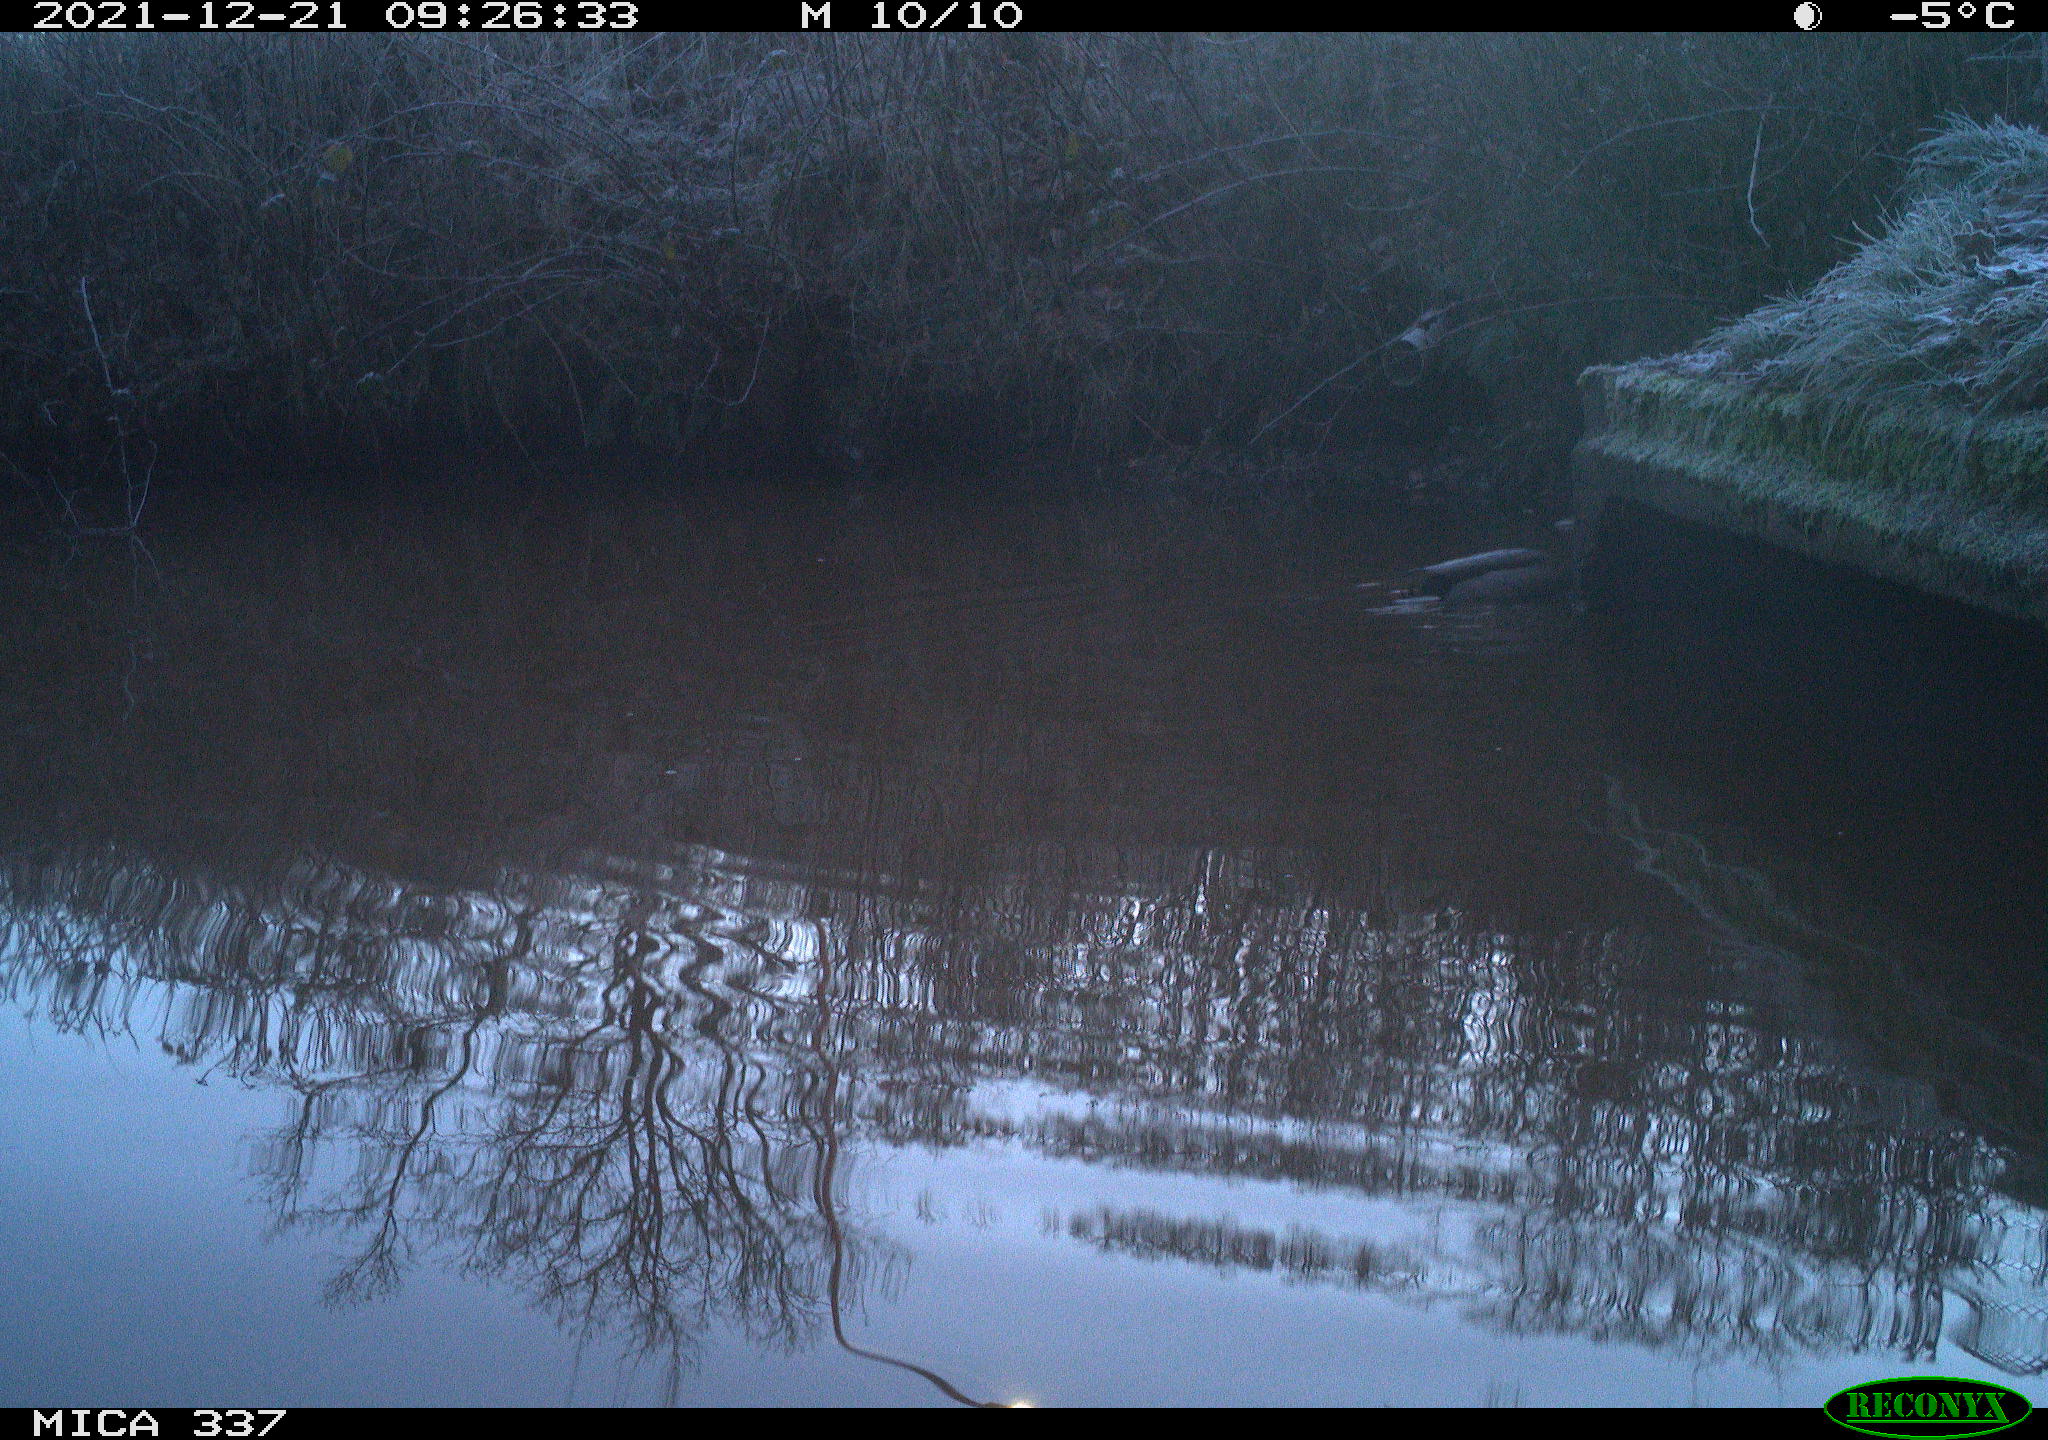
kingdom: Animalia
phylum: Chordata
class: Aves
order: Anseriformes
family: Anatidae
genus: Anas
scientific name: Anas platyrhynchos
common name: Mallard
